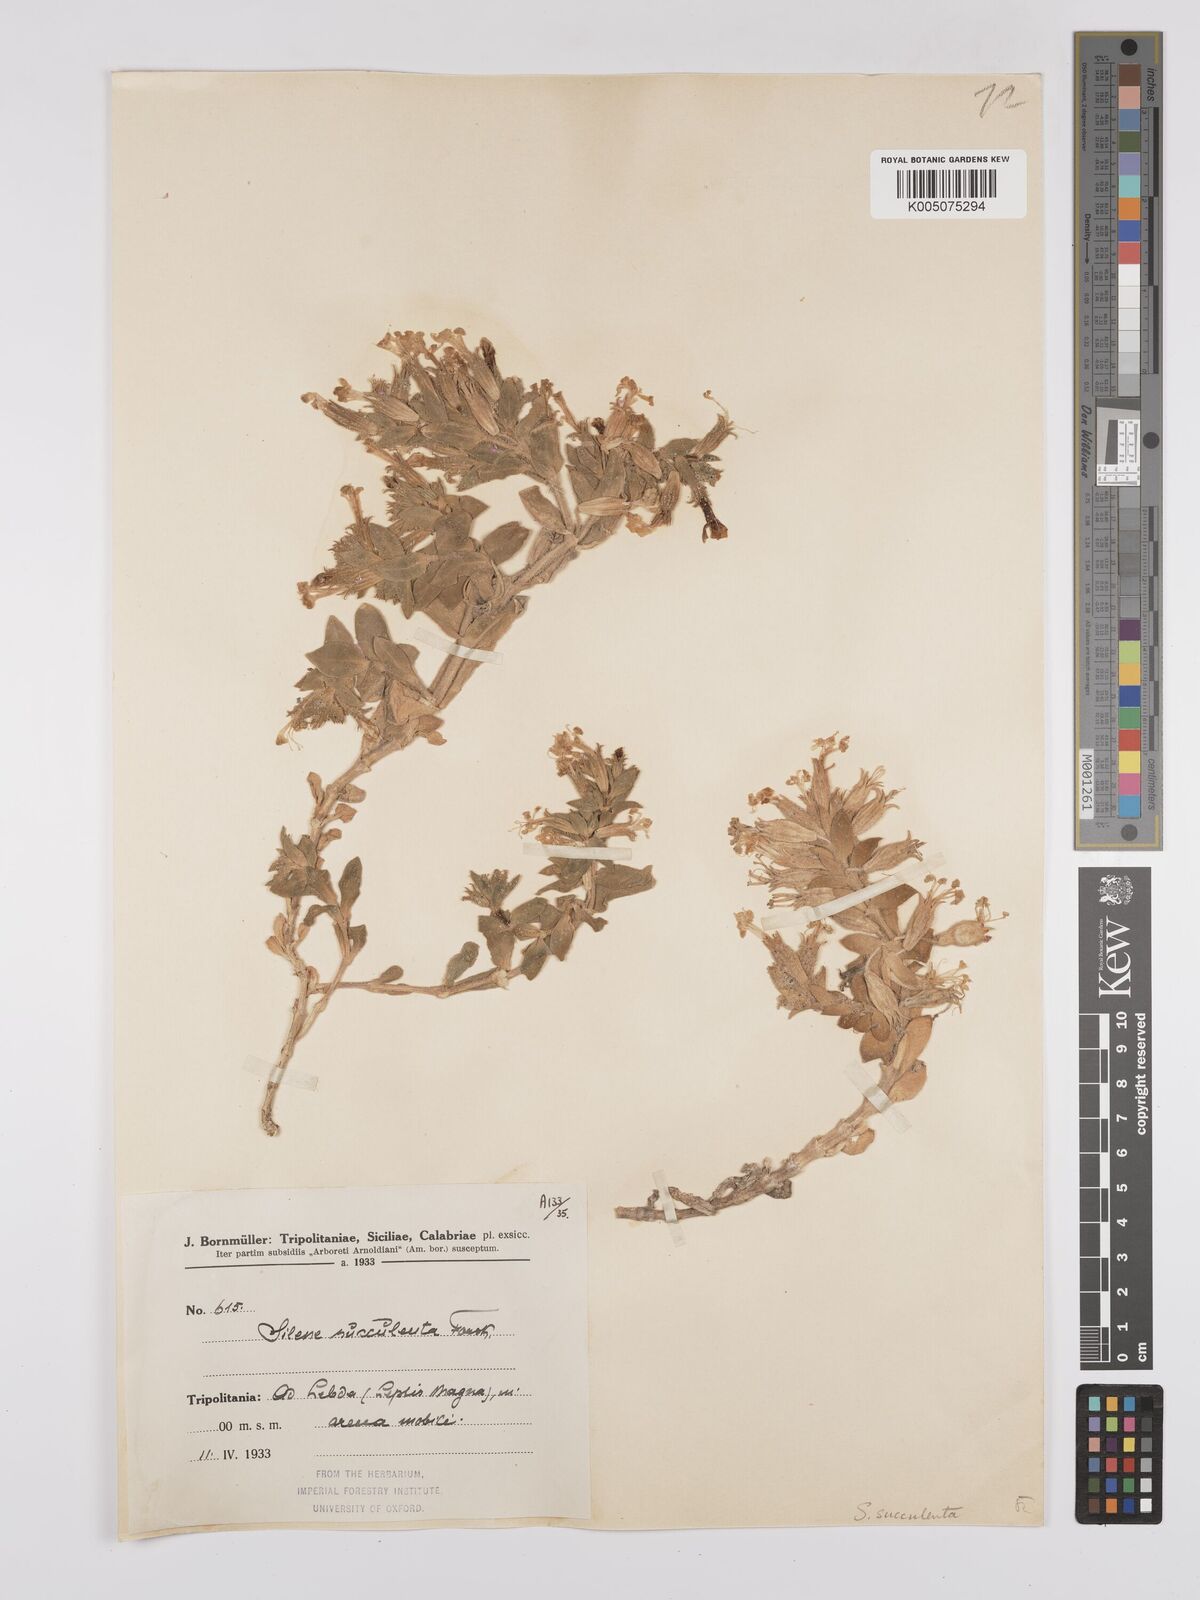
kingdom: Plantae
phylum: Tracheophyta
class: Magnoliopsida
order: Caryophyllales
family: Caryophyllaceae
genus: Silene
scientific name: Silene succulenta
